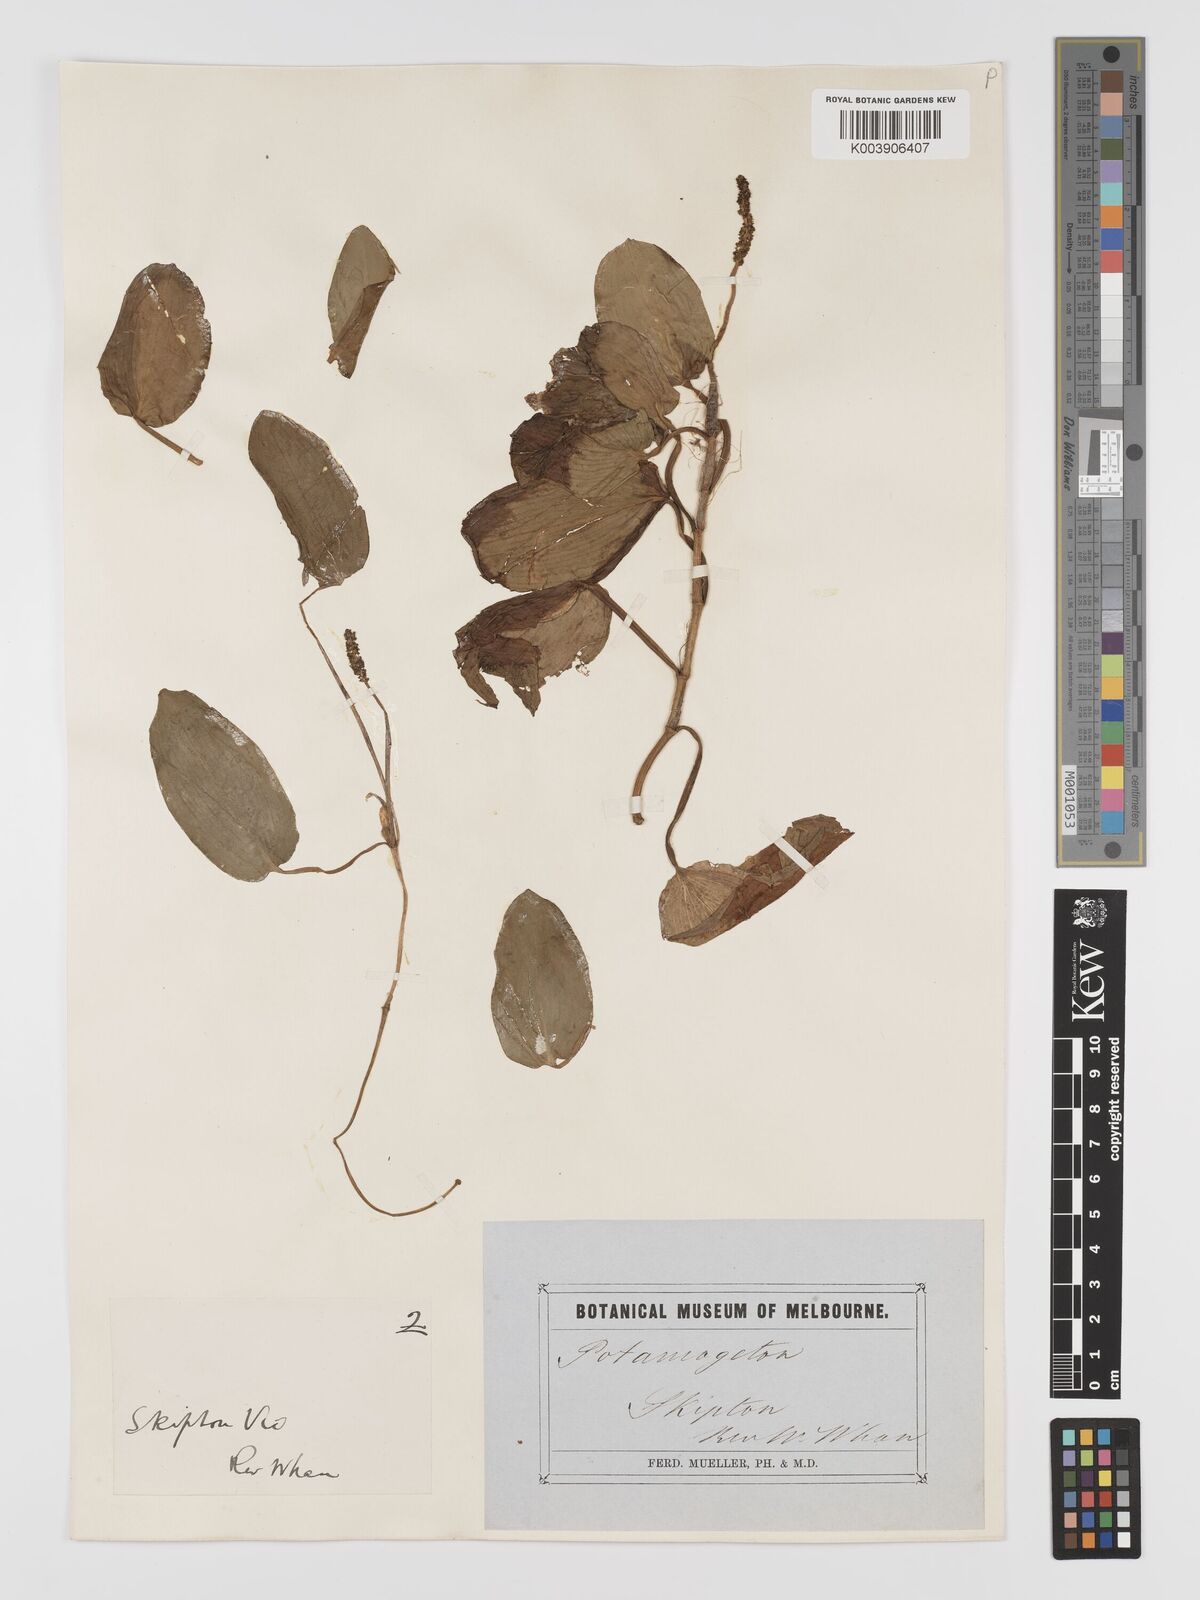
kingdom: Plantae
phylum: Tracheophyta
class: Liliopsida
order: Alismatales
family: Potamogetonaceae
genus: Potamogeton
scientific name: Potamogeton tricarinatus
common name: Pondweed
